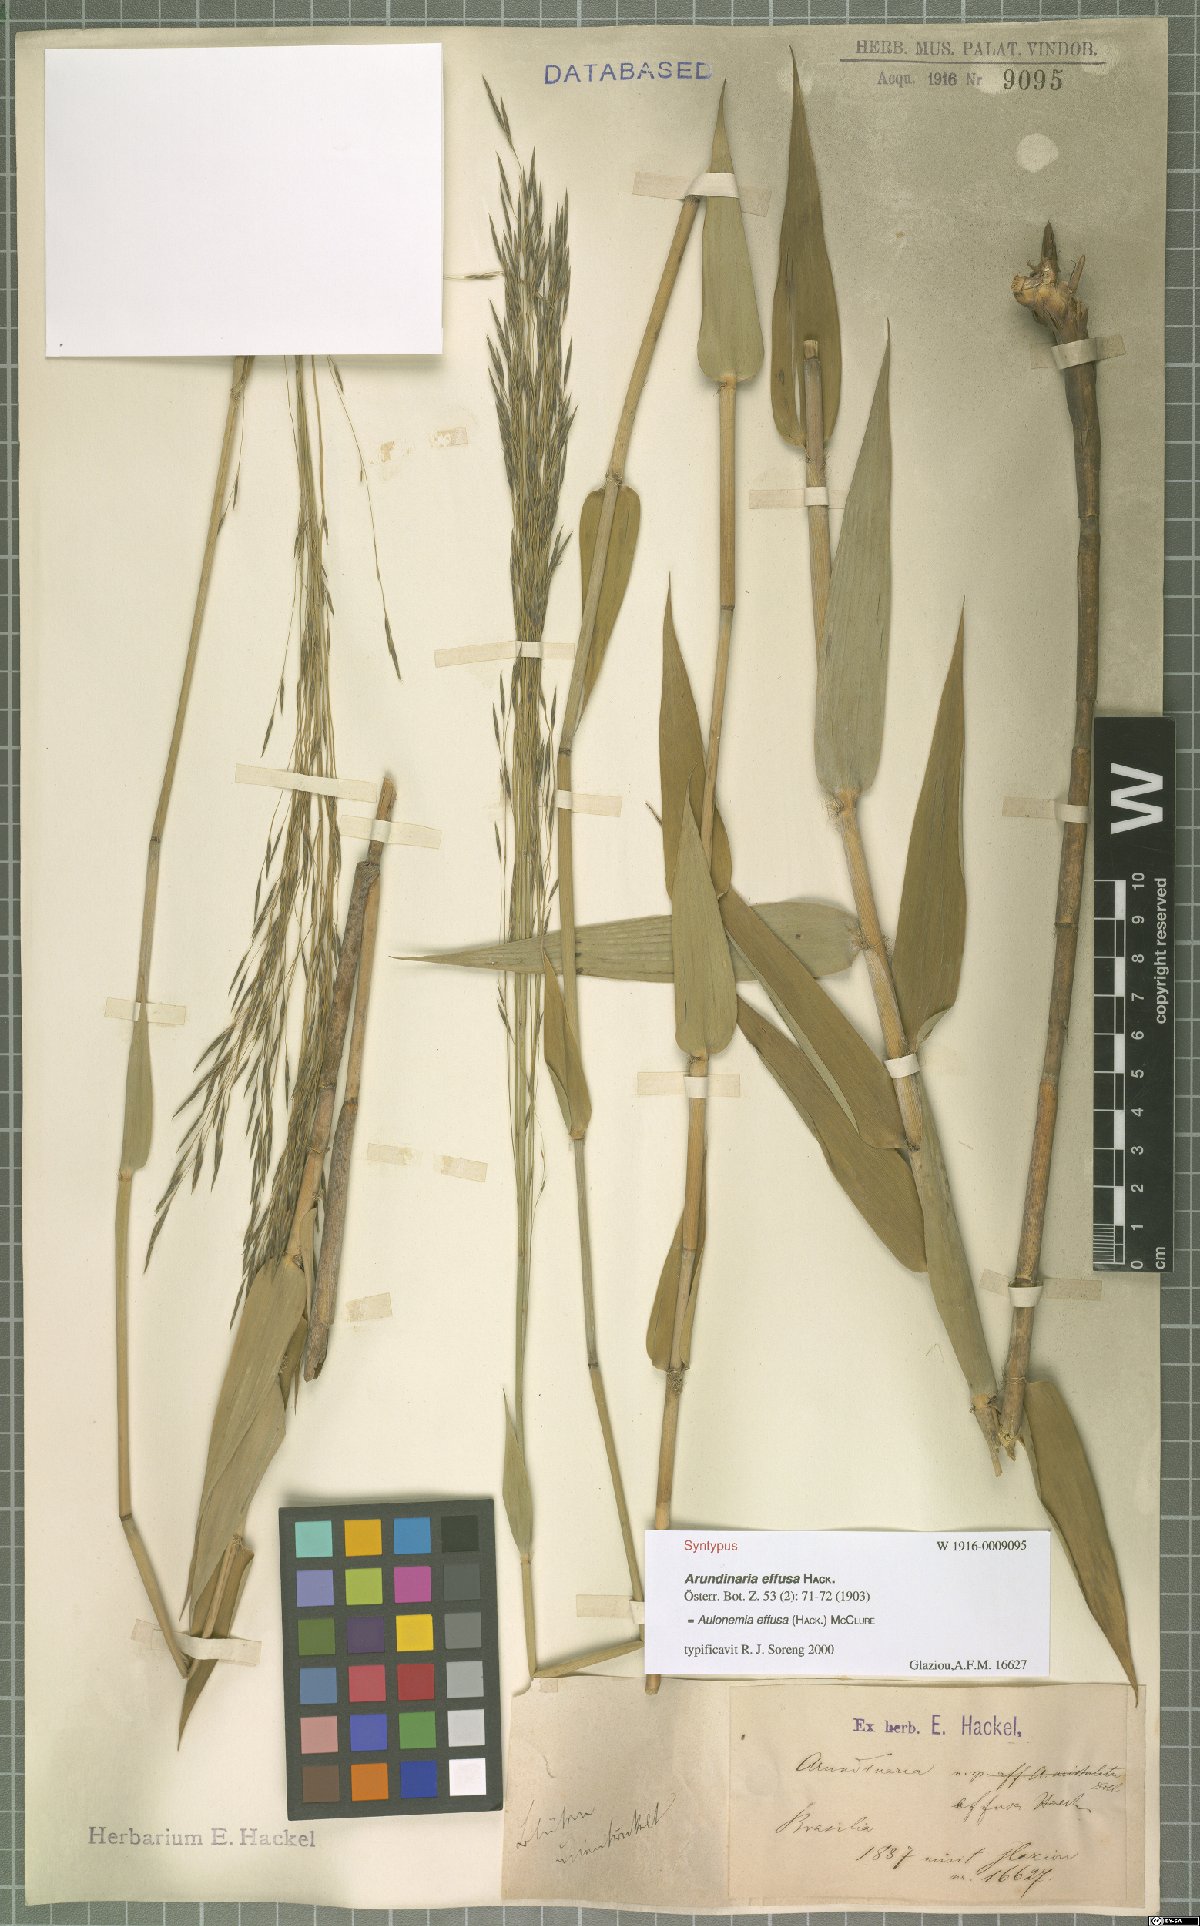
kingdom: Plantae
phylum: Tracheophyta
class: Liliopsida
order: Poales
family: Poaceae
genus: Aulonemia
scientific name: Aulonemia effusa
